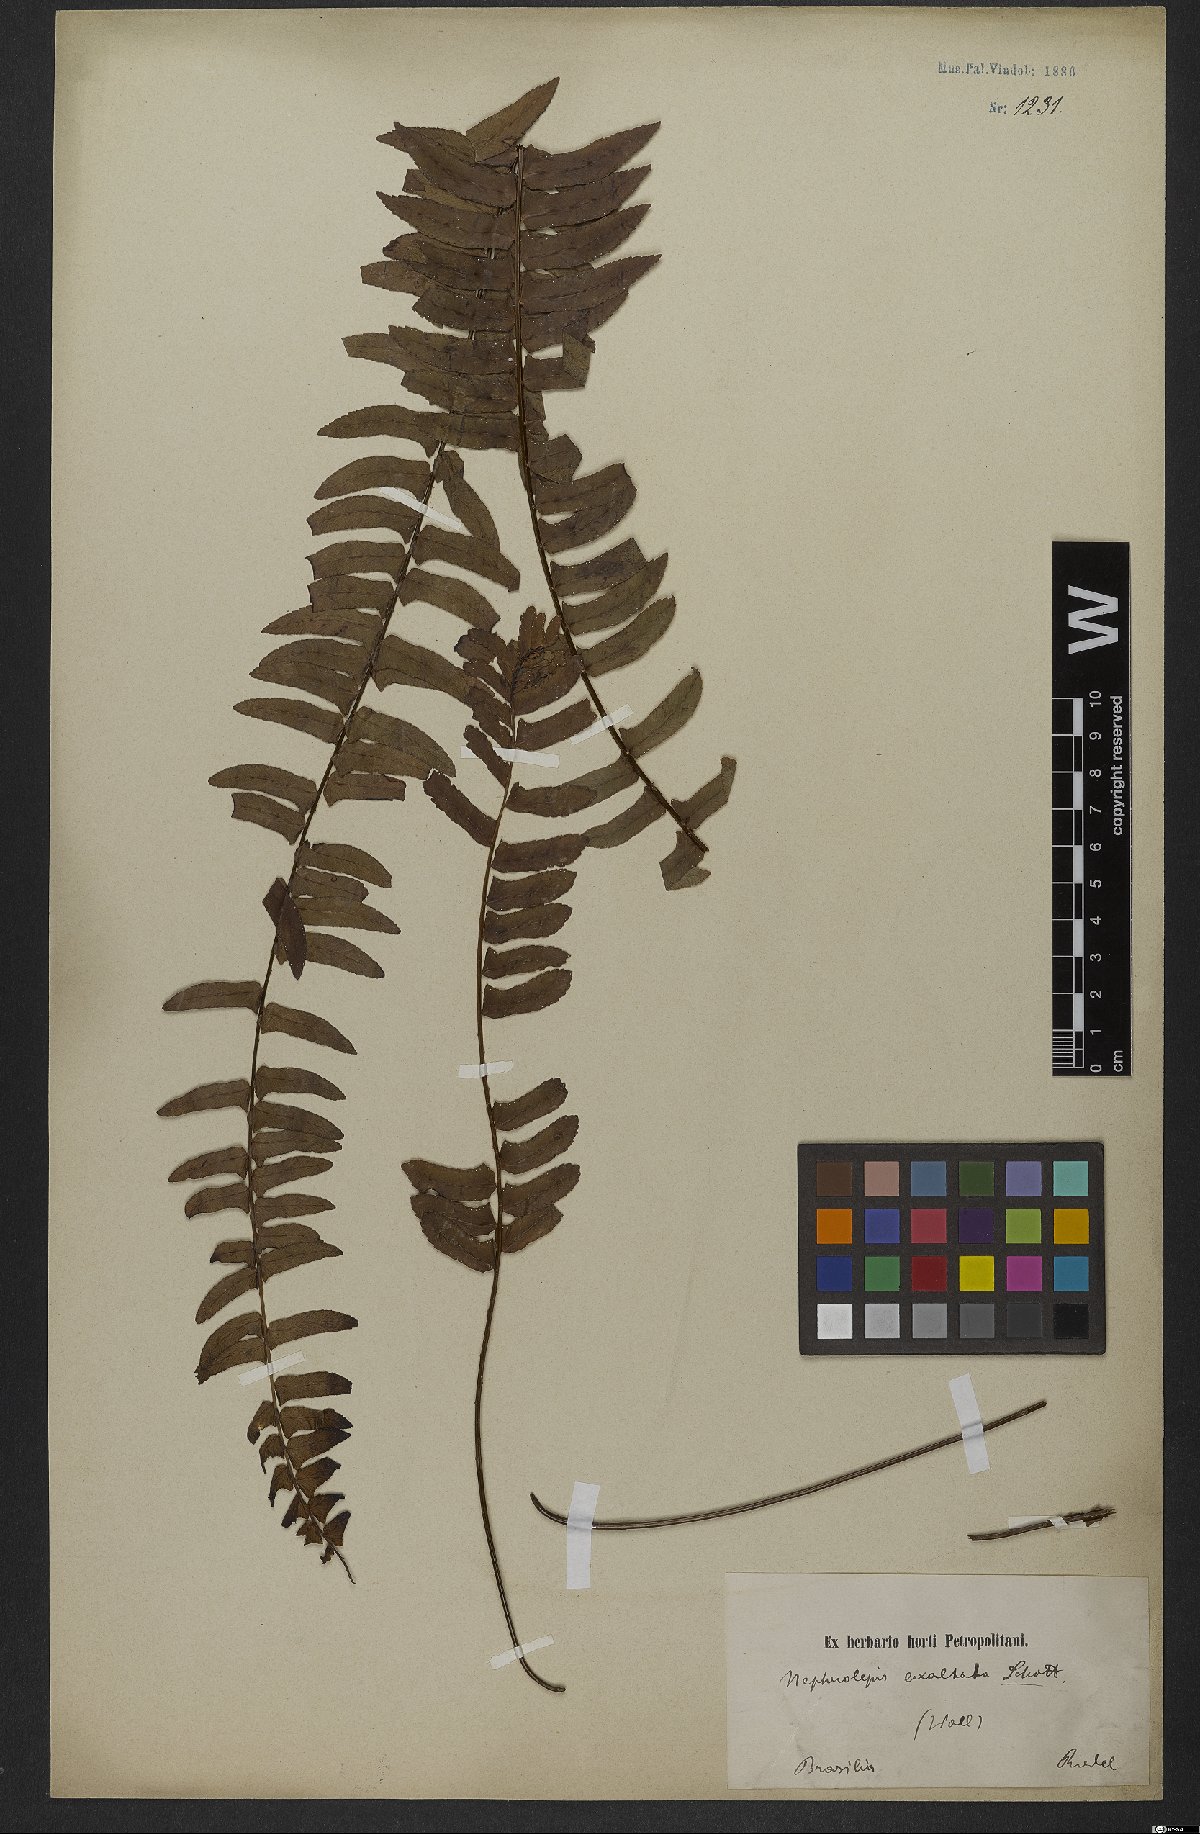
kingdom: Plantae
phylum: Tracheophyta
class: Polypodiopsida
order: Polypodiales
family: Nephrolepidaceae
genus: Nephrolepis
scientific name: Nephrolepis exaltata
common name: Sword fern
